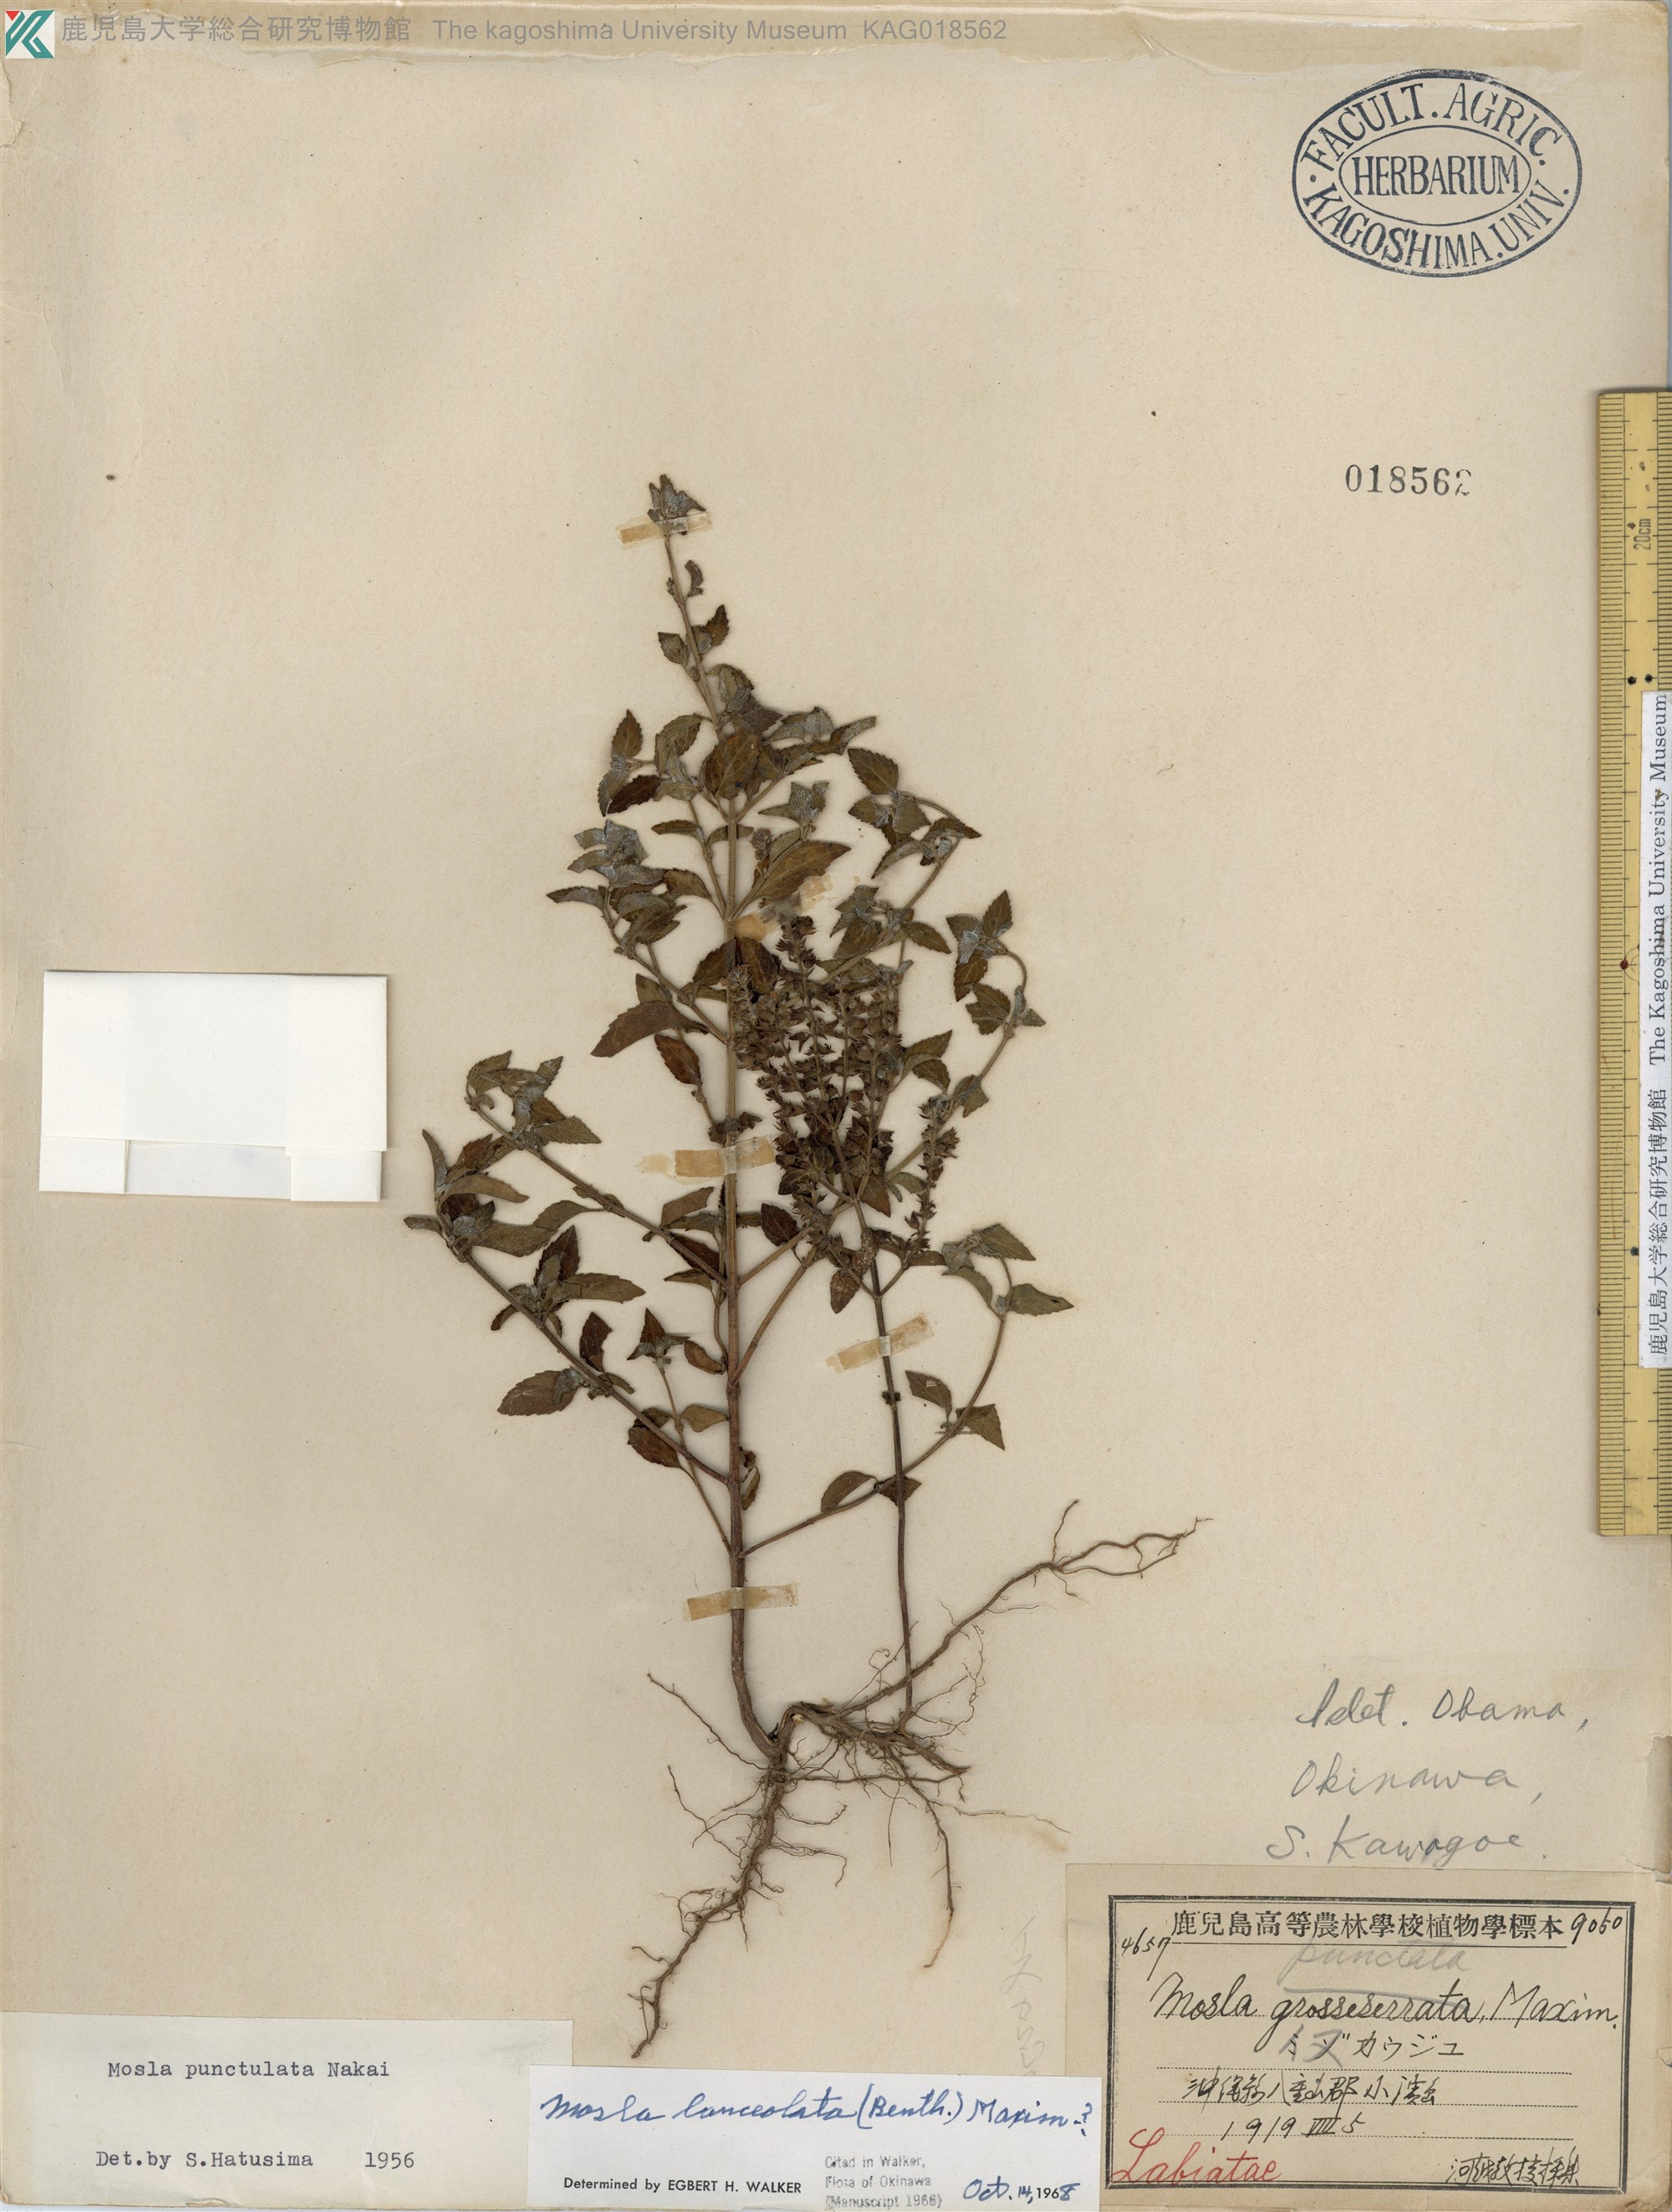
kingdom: Plantae
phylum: Tracheophyta
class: Magnoliopsida
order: Lamiales
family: Lamiaceae
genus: Mosla
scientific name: Mosla scabra
